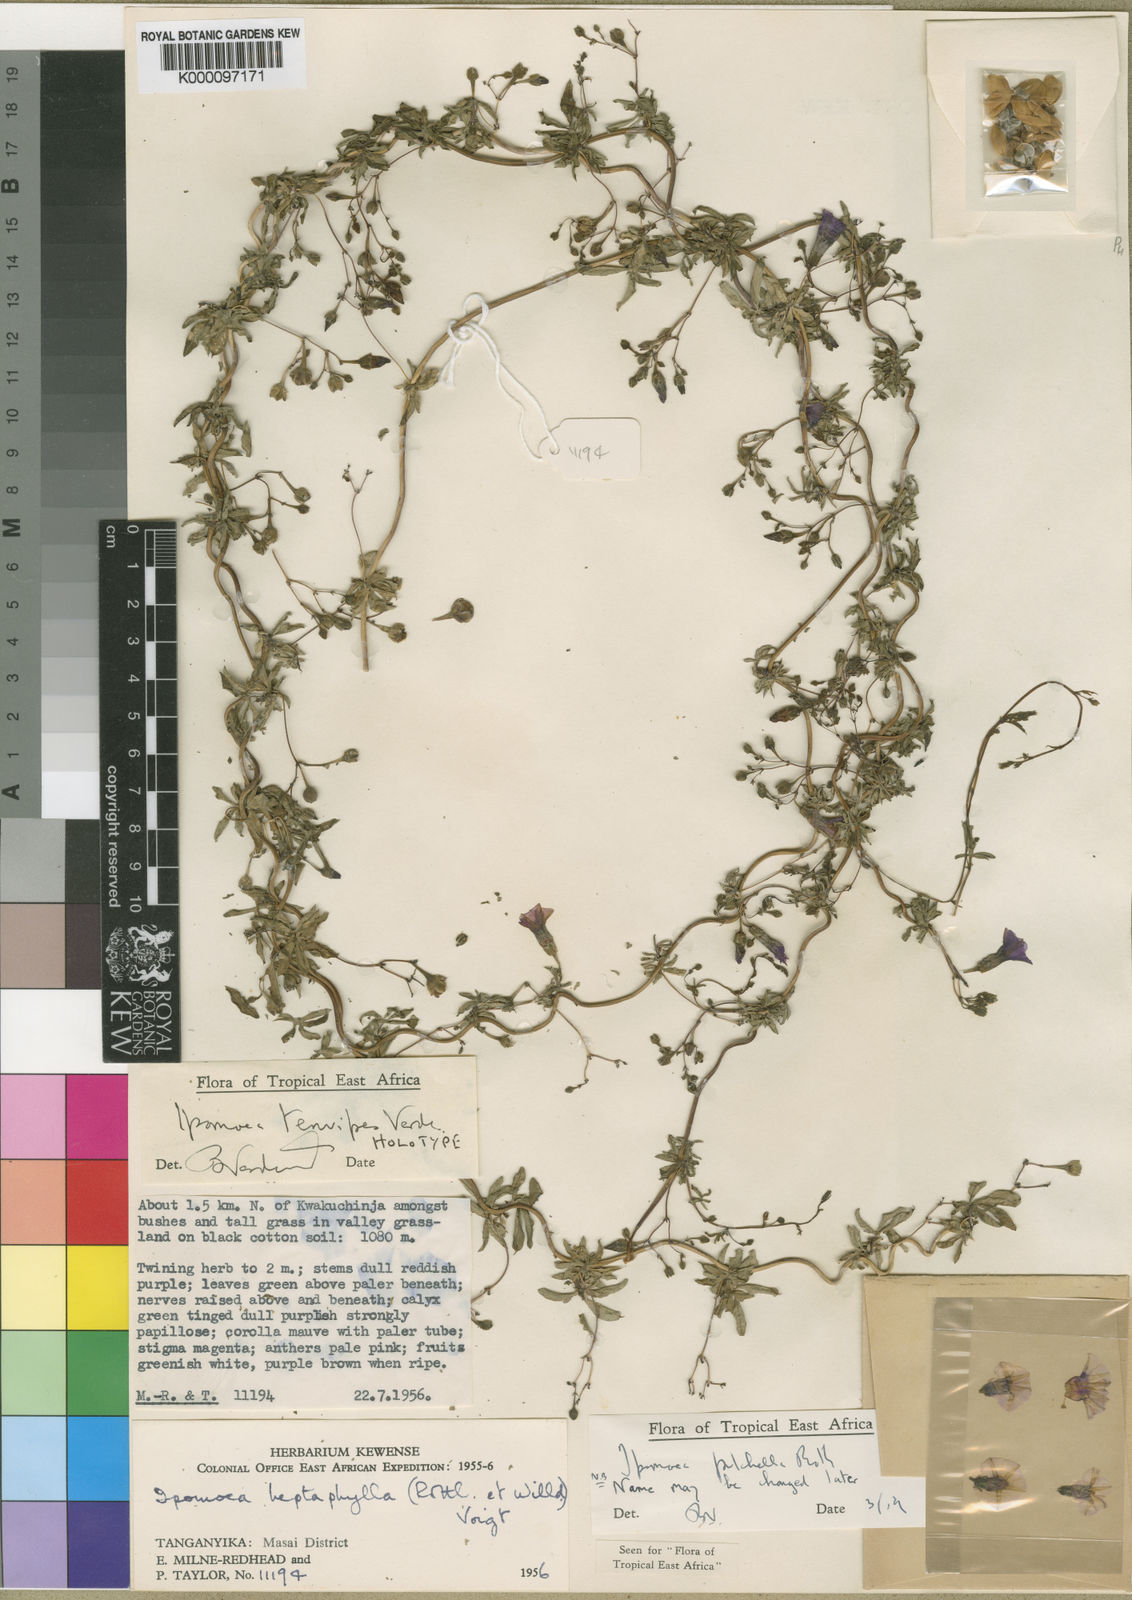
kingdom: Plantae
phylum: Tracheophyta
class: Magnoliopsida
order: Solanales
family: Convolvulaceae
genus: Ipomoea
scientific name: Ipomoea tenuipes
